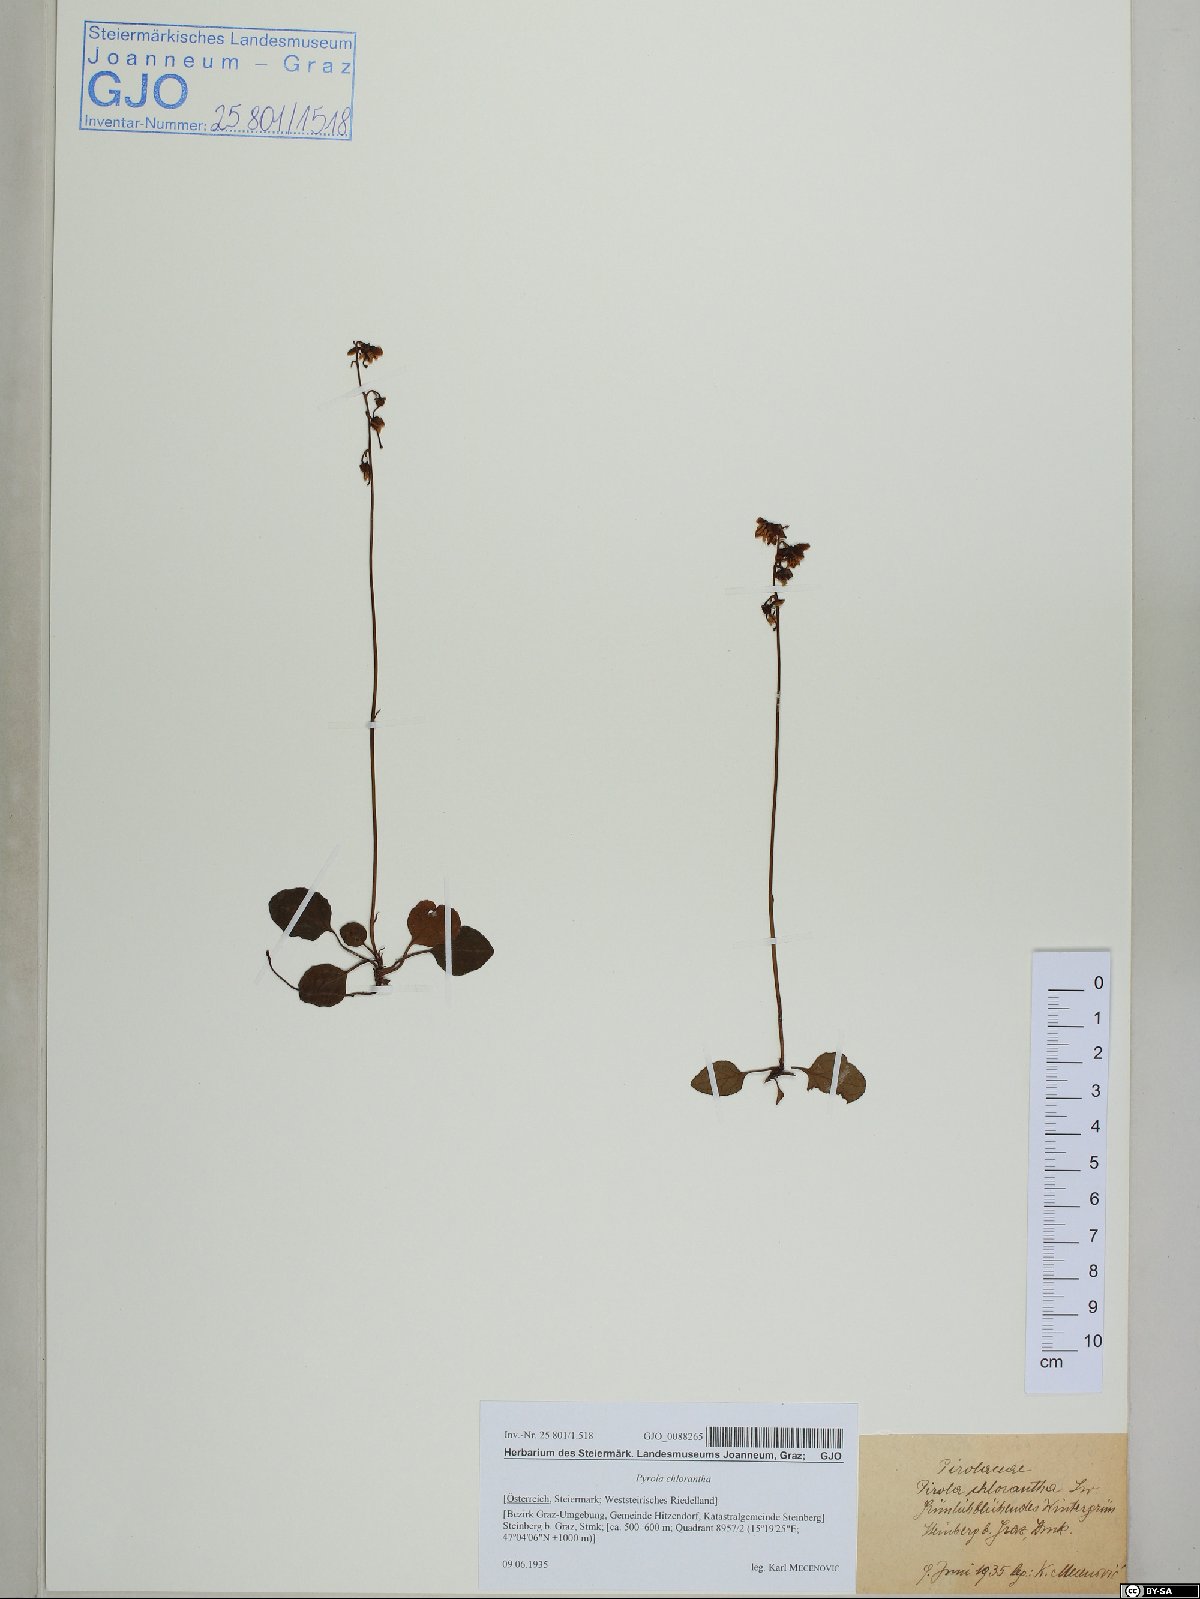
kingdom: Plantae
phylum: Tracheophyta
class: Magnoliopsida
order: Ericales
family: Ericaceae
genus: Pyrola
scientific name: Pyrola chlorantha
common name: Green wintergreen
